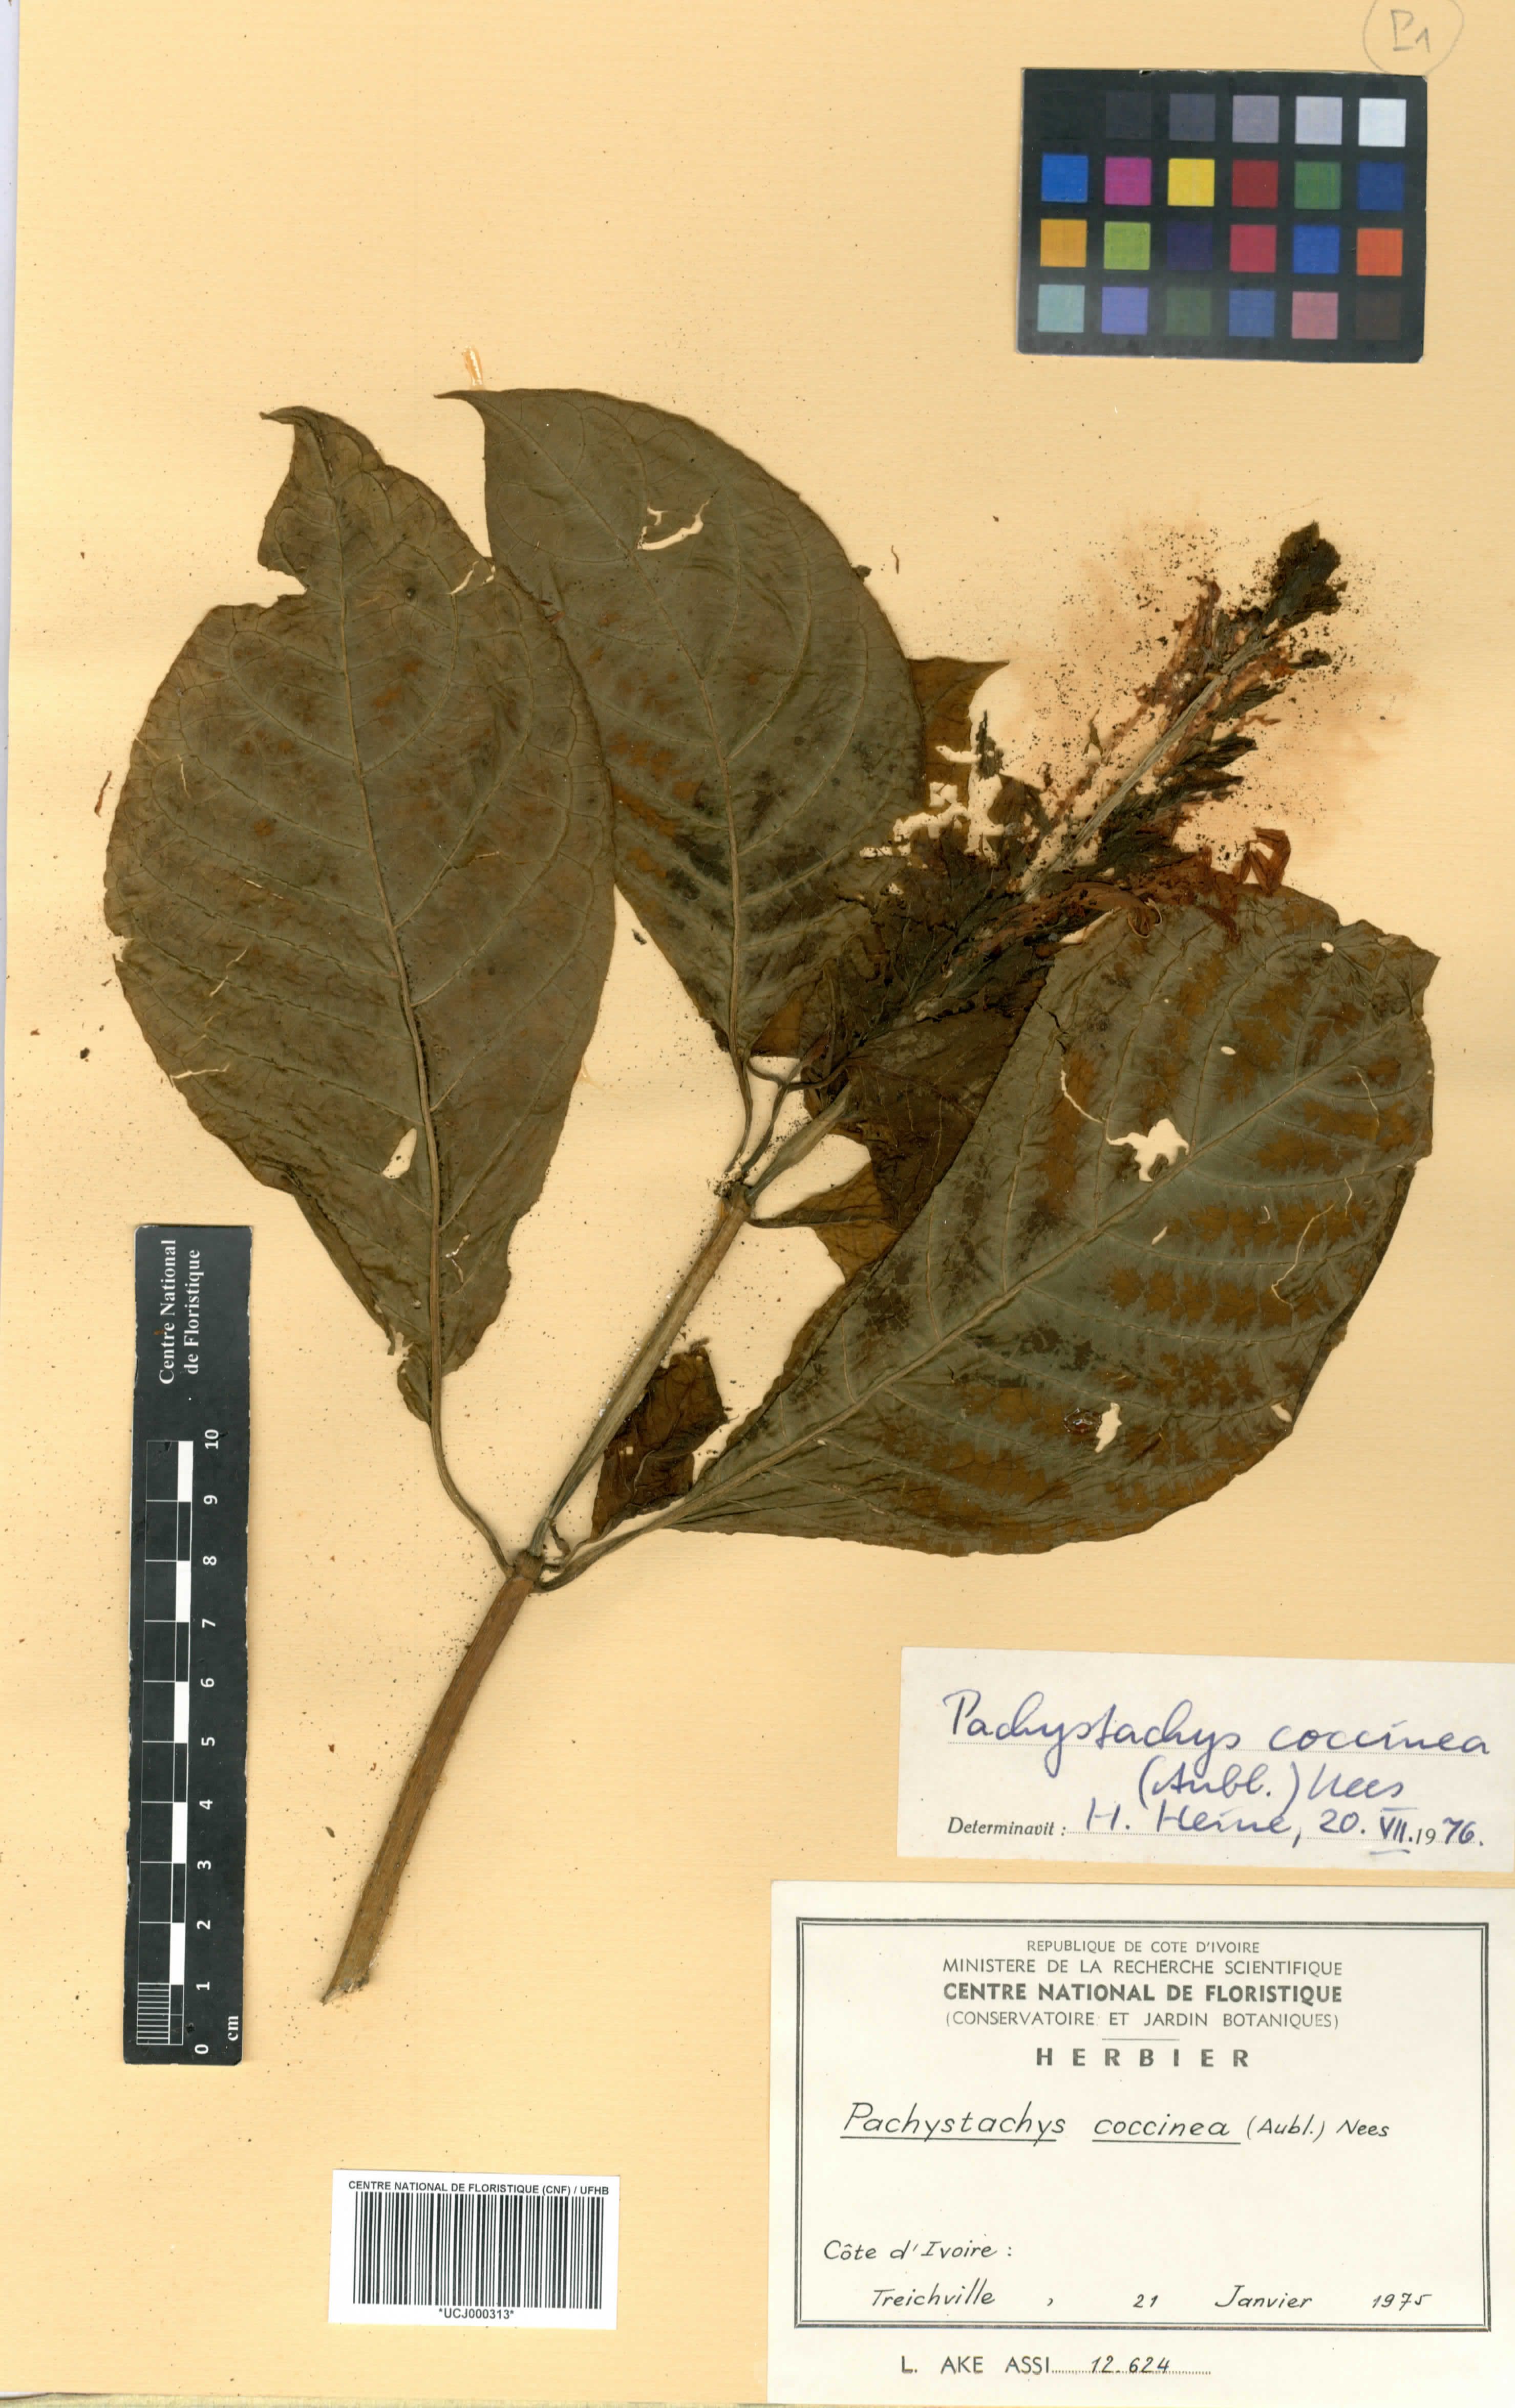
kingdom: Plantae
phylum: Tracheophyta
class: Magnoliopsida
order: Lamiales
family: Acanthaceae
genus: Pachystachys
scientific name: Pachystachys coccinea
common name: Cardinal's-guard
